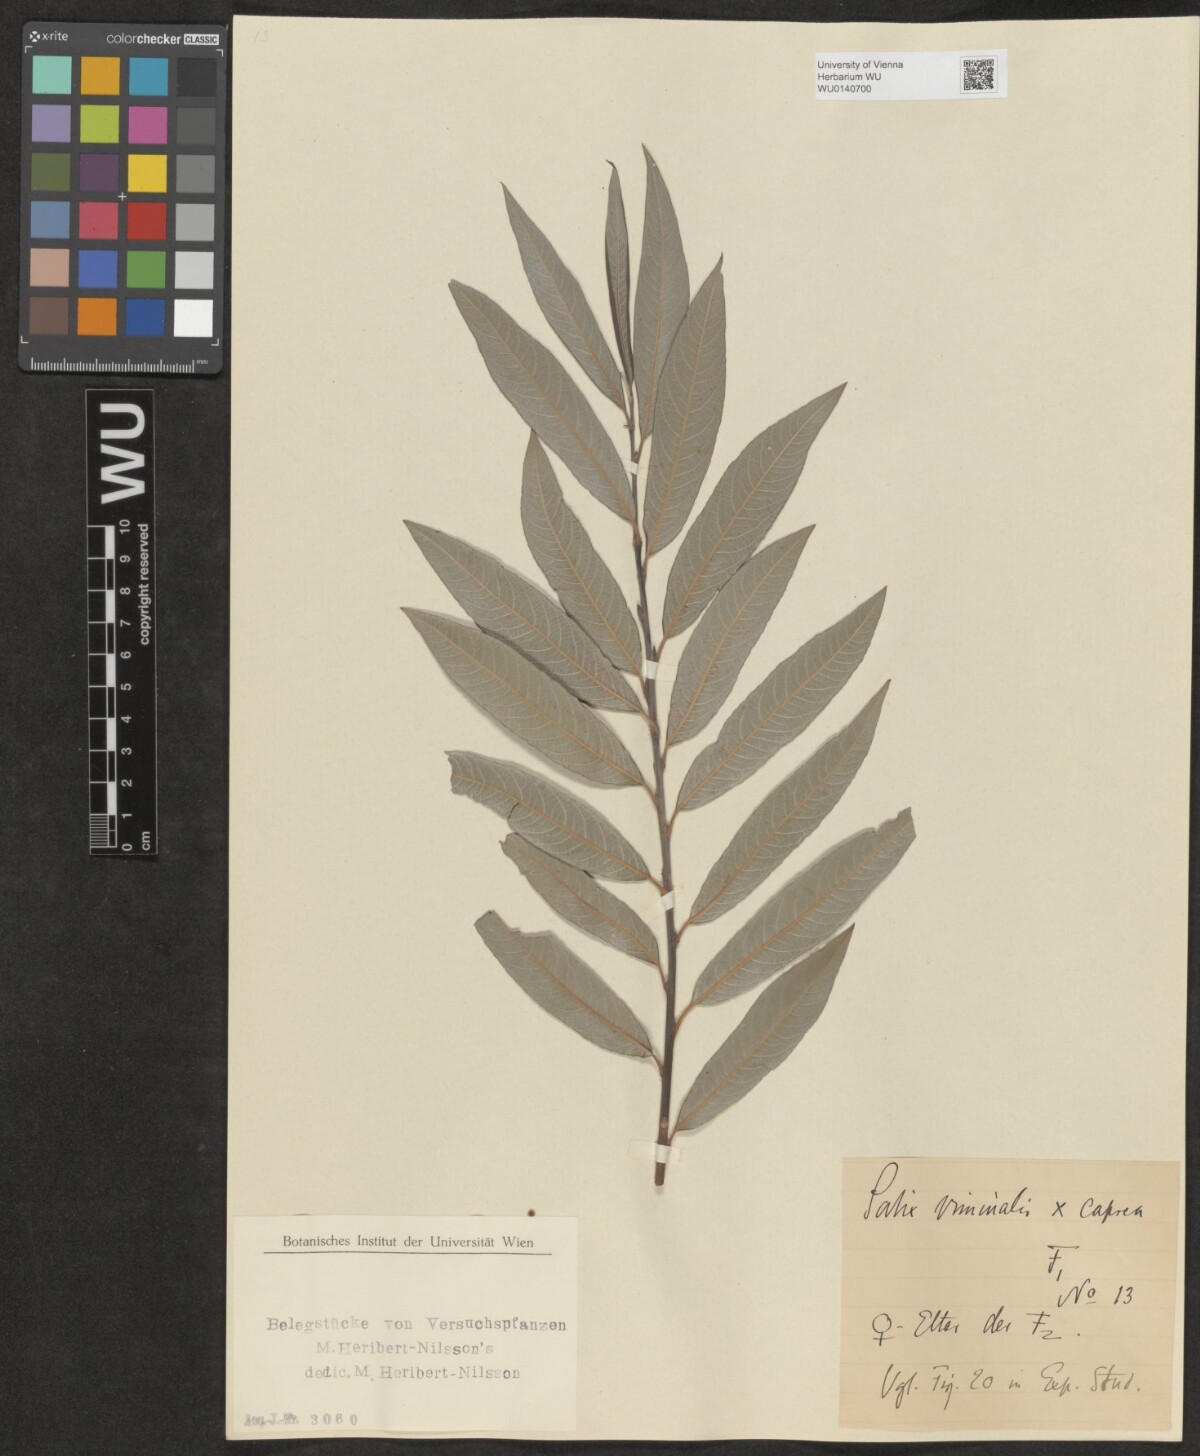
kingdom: Plantae
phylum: Tracheophyta
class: Magnoliopsida
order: Malpighiales
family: Salicaceae
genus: Salix
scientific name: Salix
